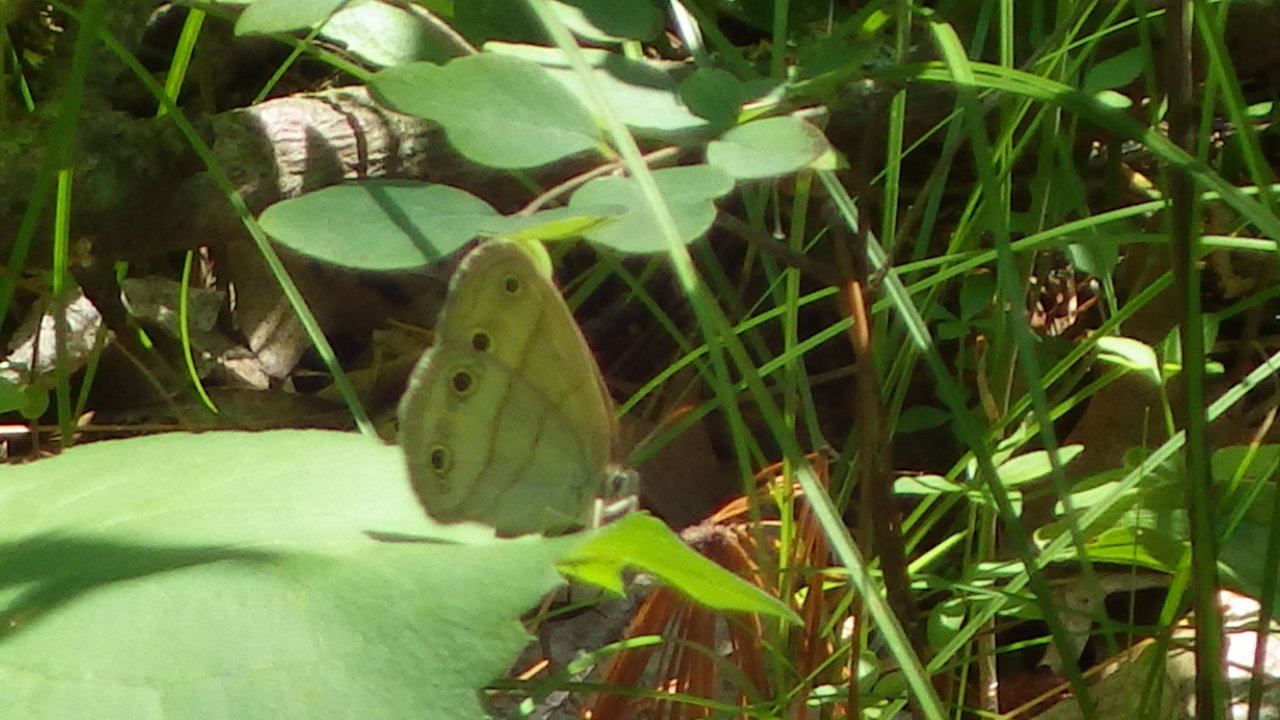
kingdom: Animalia
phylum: Arthropoda
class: Insecta
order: Lepidoptera
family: Nymphalidae
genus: Euptychia
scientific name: Euptychia cymela
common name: Little Wood Satyr
